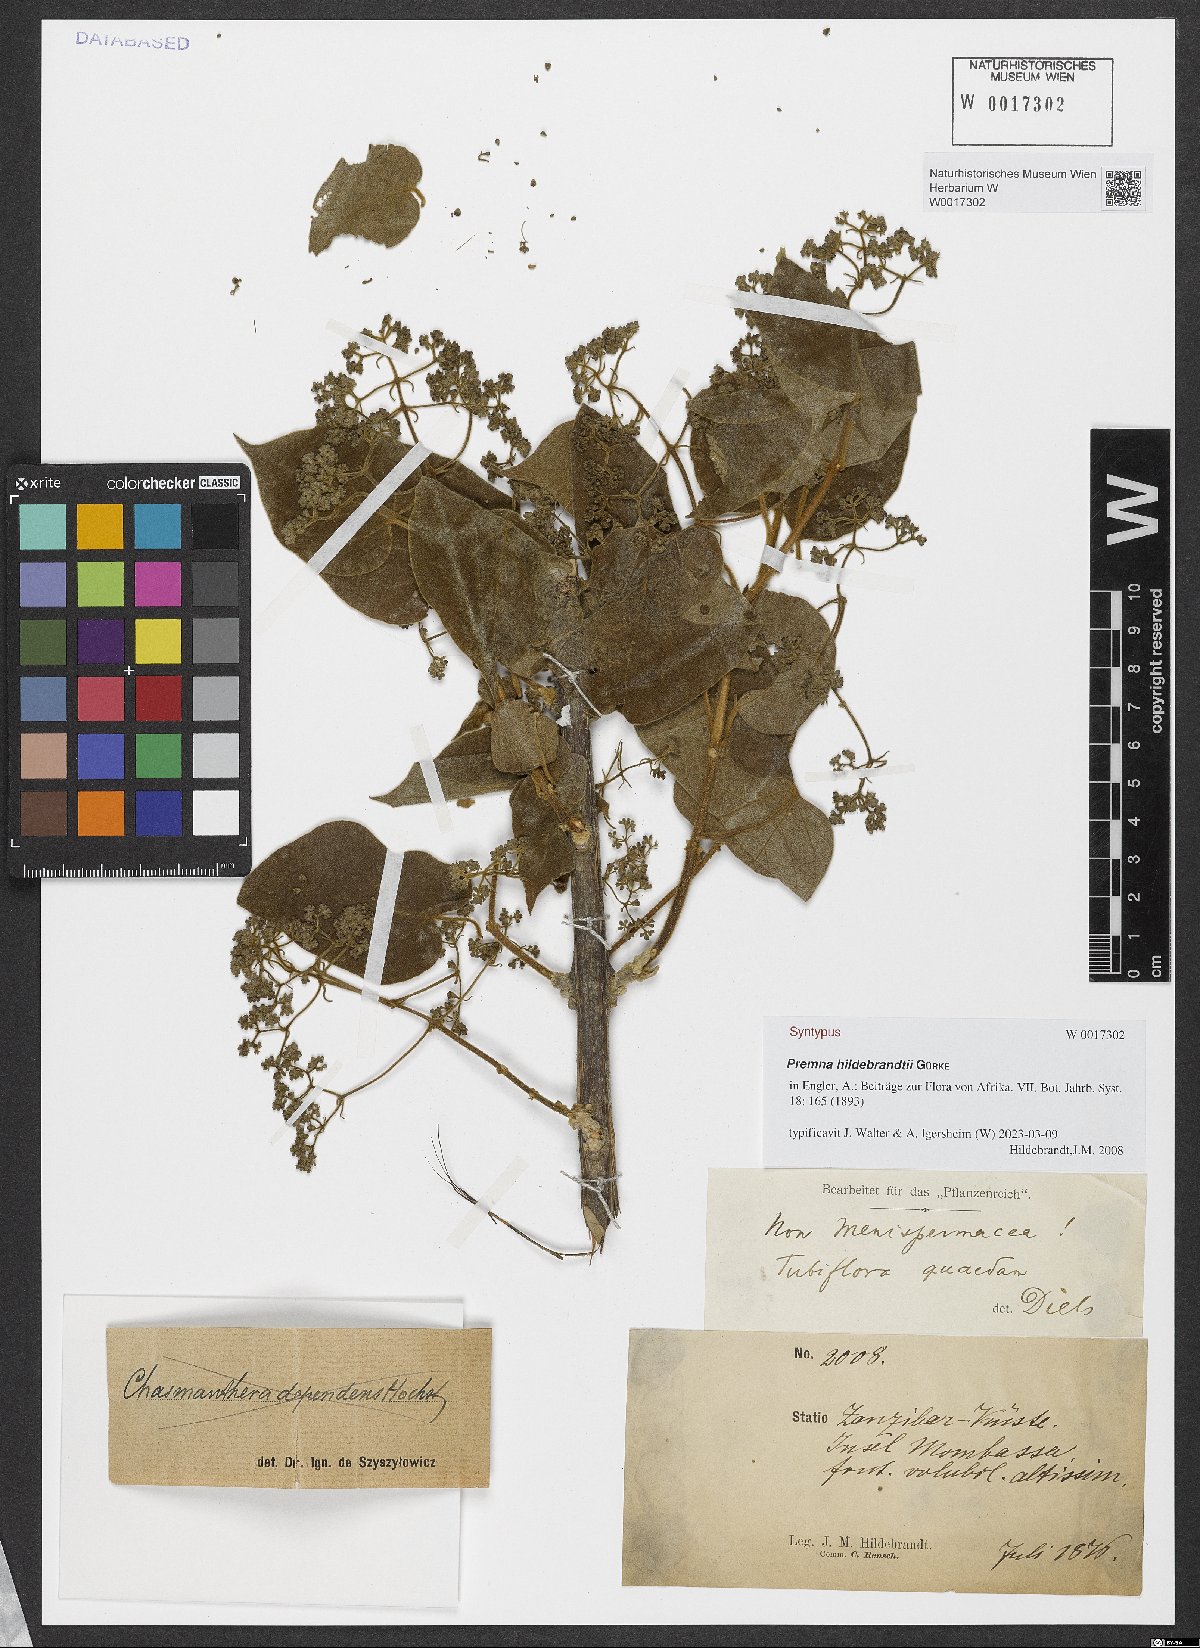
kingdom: Plantae
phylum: Tracheophyta
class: Magnoliopsida
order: Lamiales
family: Lamiaceae
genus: Premna
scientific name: Premna hildebrandtii
